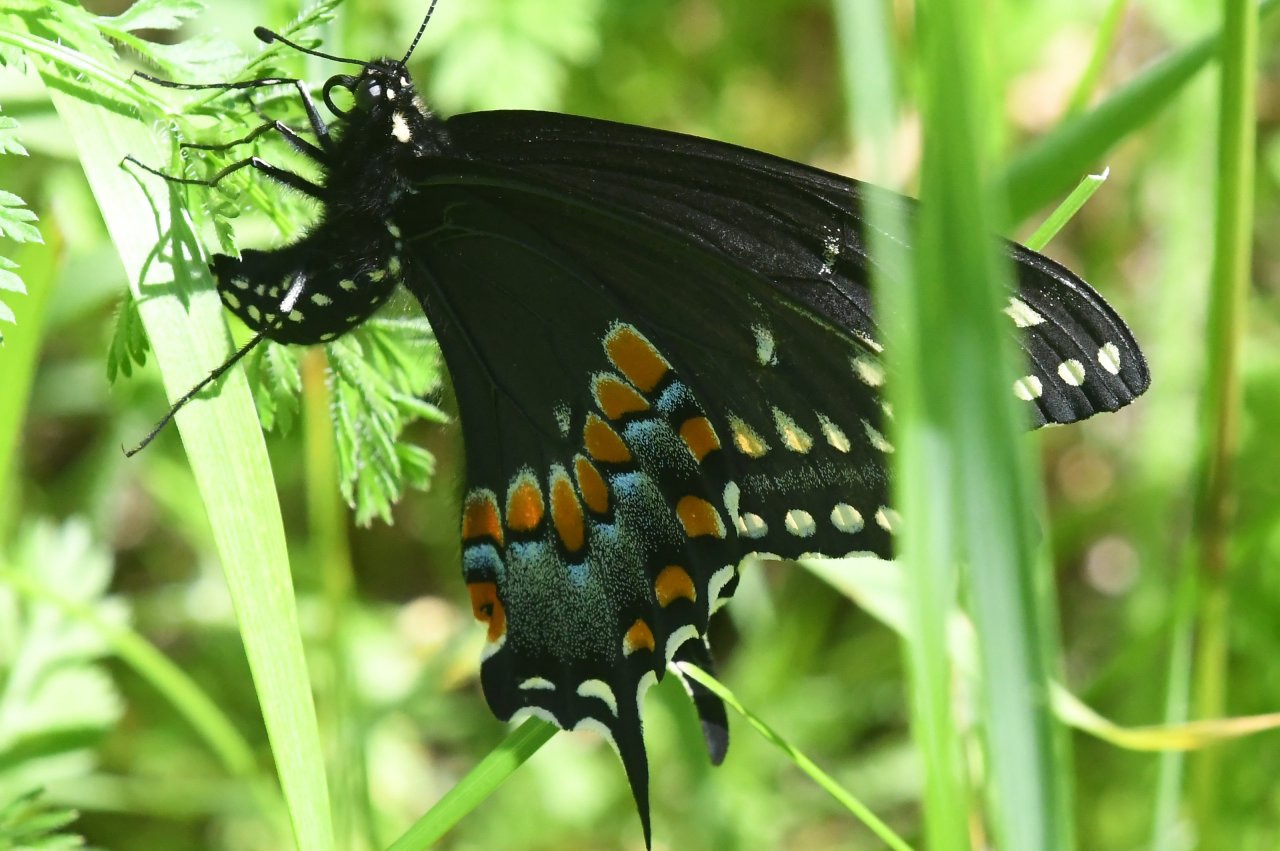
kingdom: Animalia
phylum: Arthropoda
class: Insecta
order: Lepidoptera
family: Papilionidae
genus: Papilio
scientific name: Papilio polyxenes
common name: Black Swallowtail
